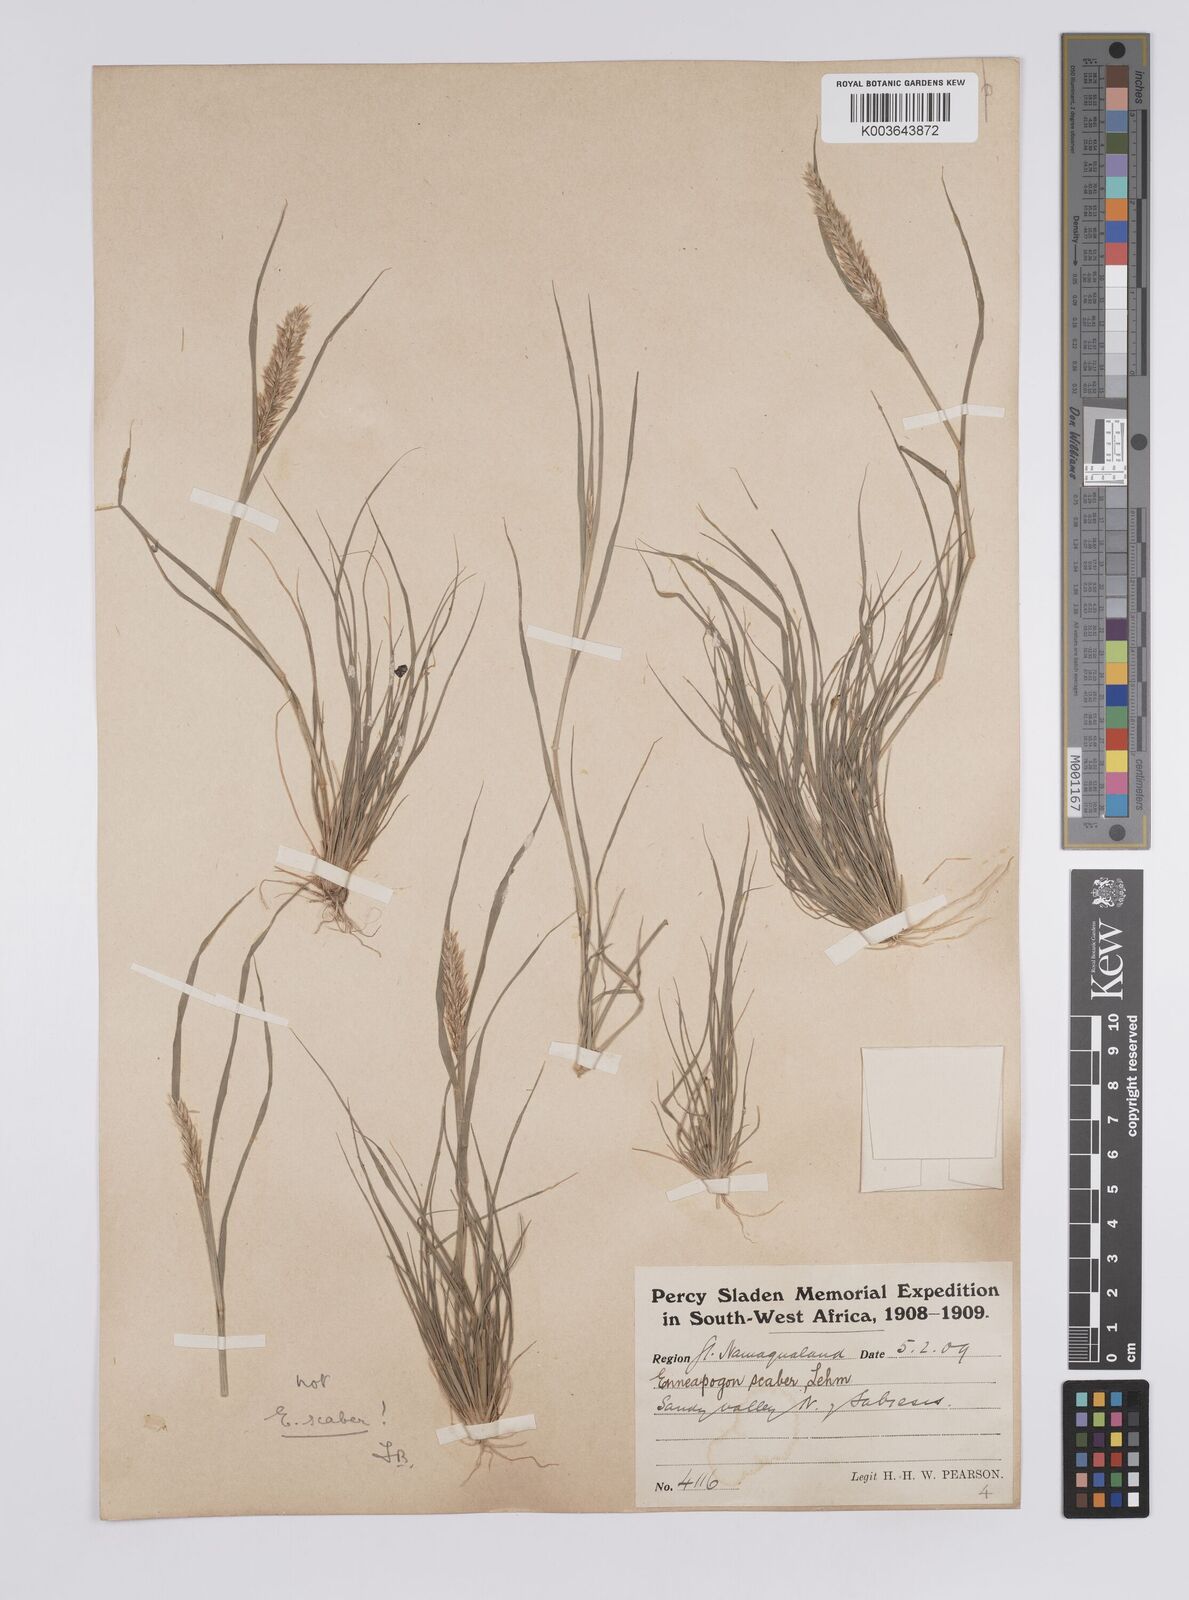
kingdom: Plantae
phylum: Tracheophyta
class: Liliopsida
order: Poales
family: Poaceae
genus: Enneapogon
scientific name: Enneapogon desvauxii
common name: Feather pappus grass
